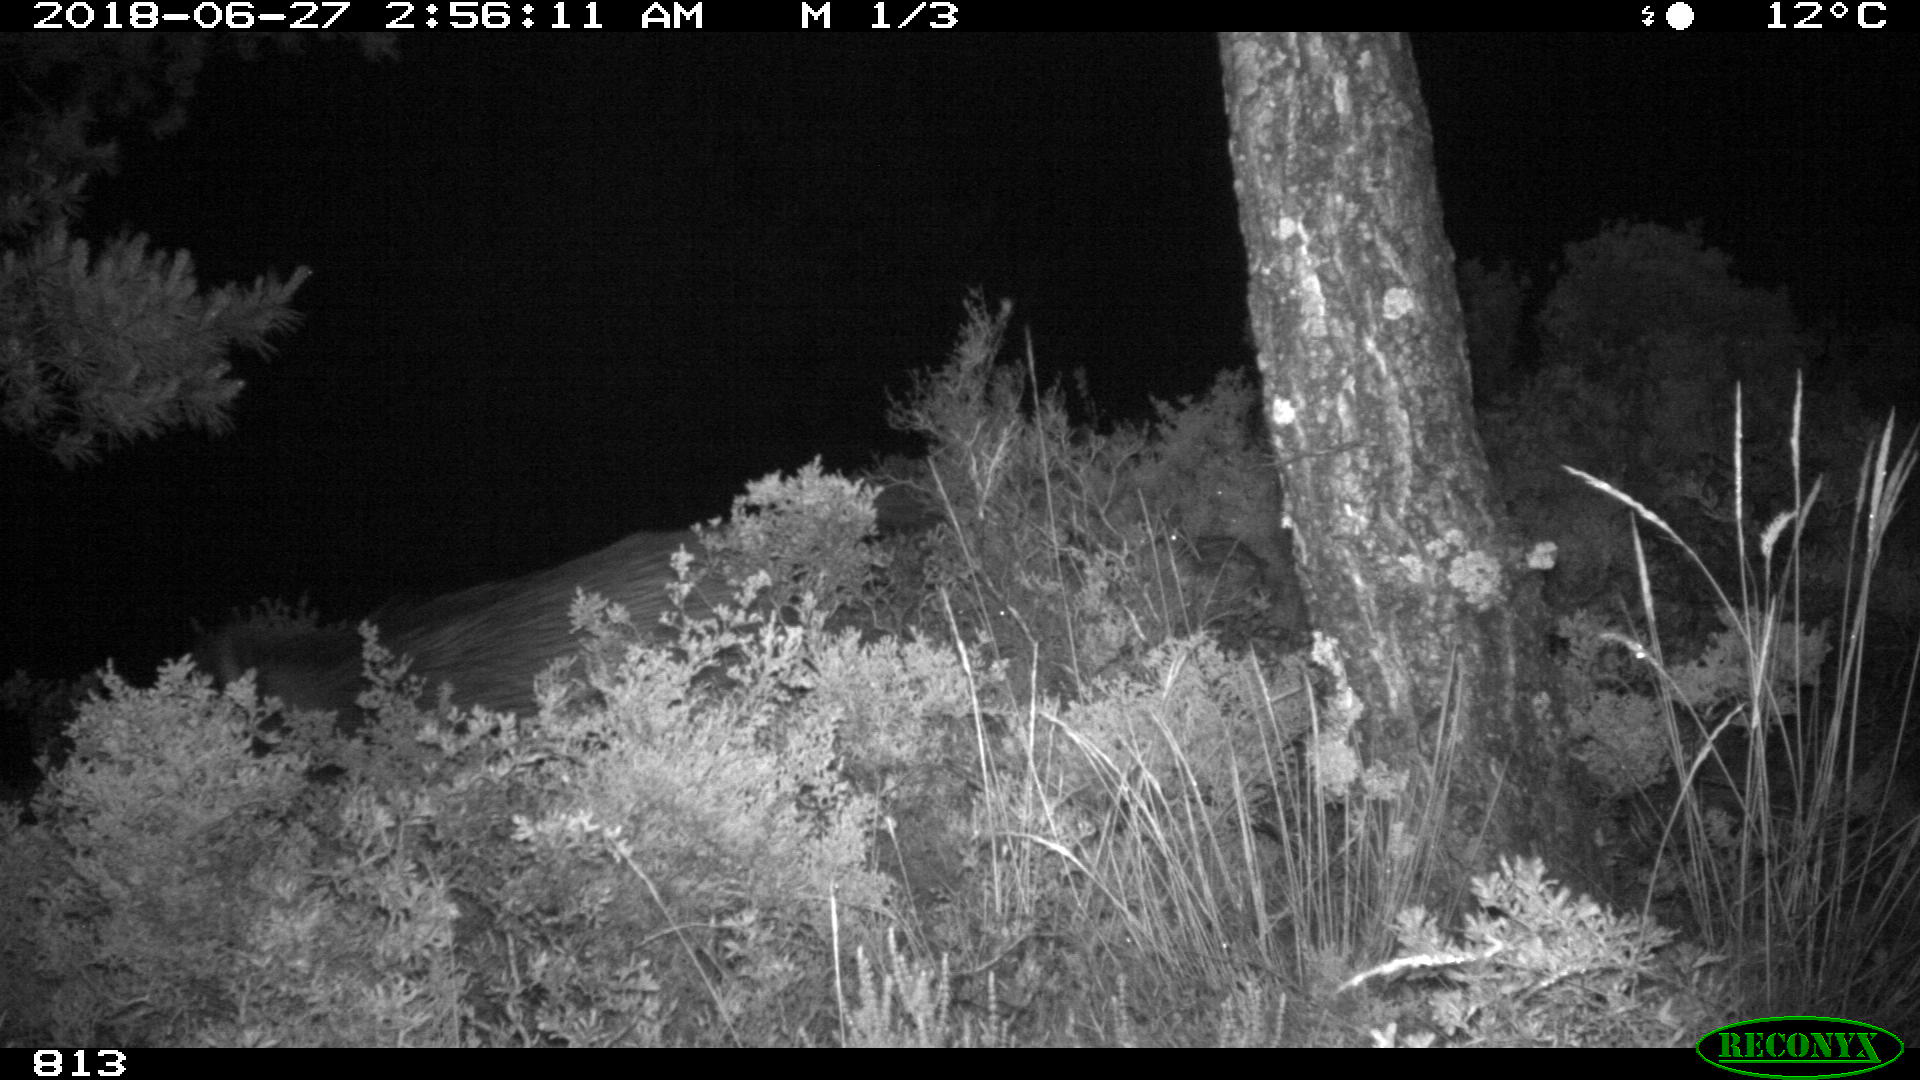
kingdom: Animalia
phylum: Chordata
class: Mammalia
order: Artiodactyla
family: Suidae
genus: Sus
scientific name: Sus scrofa
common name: Wild boar
